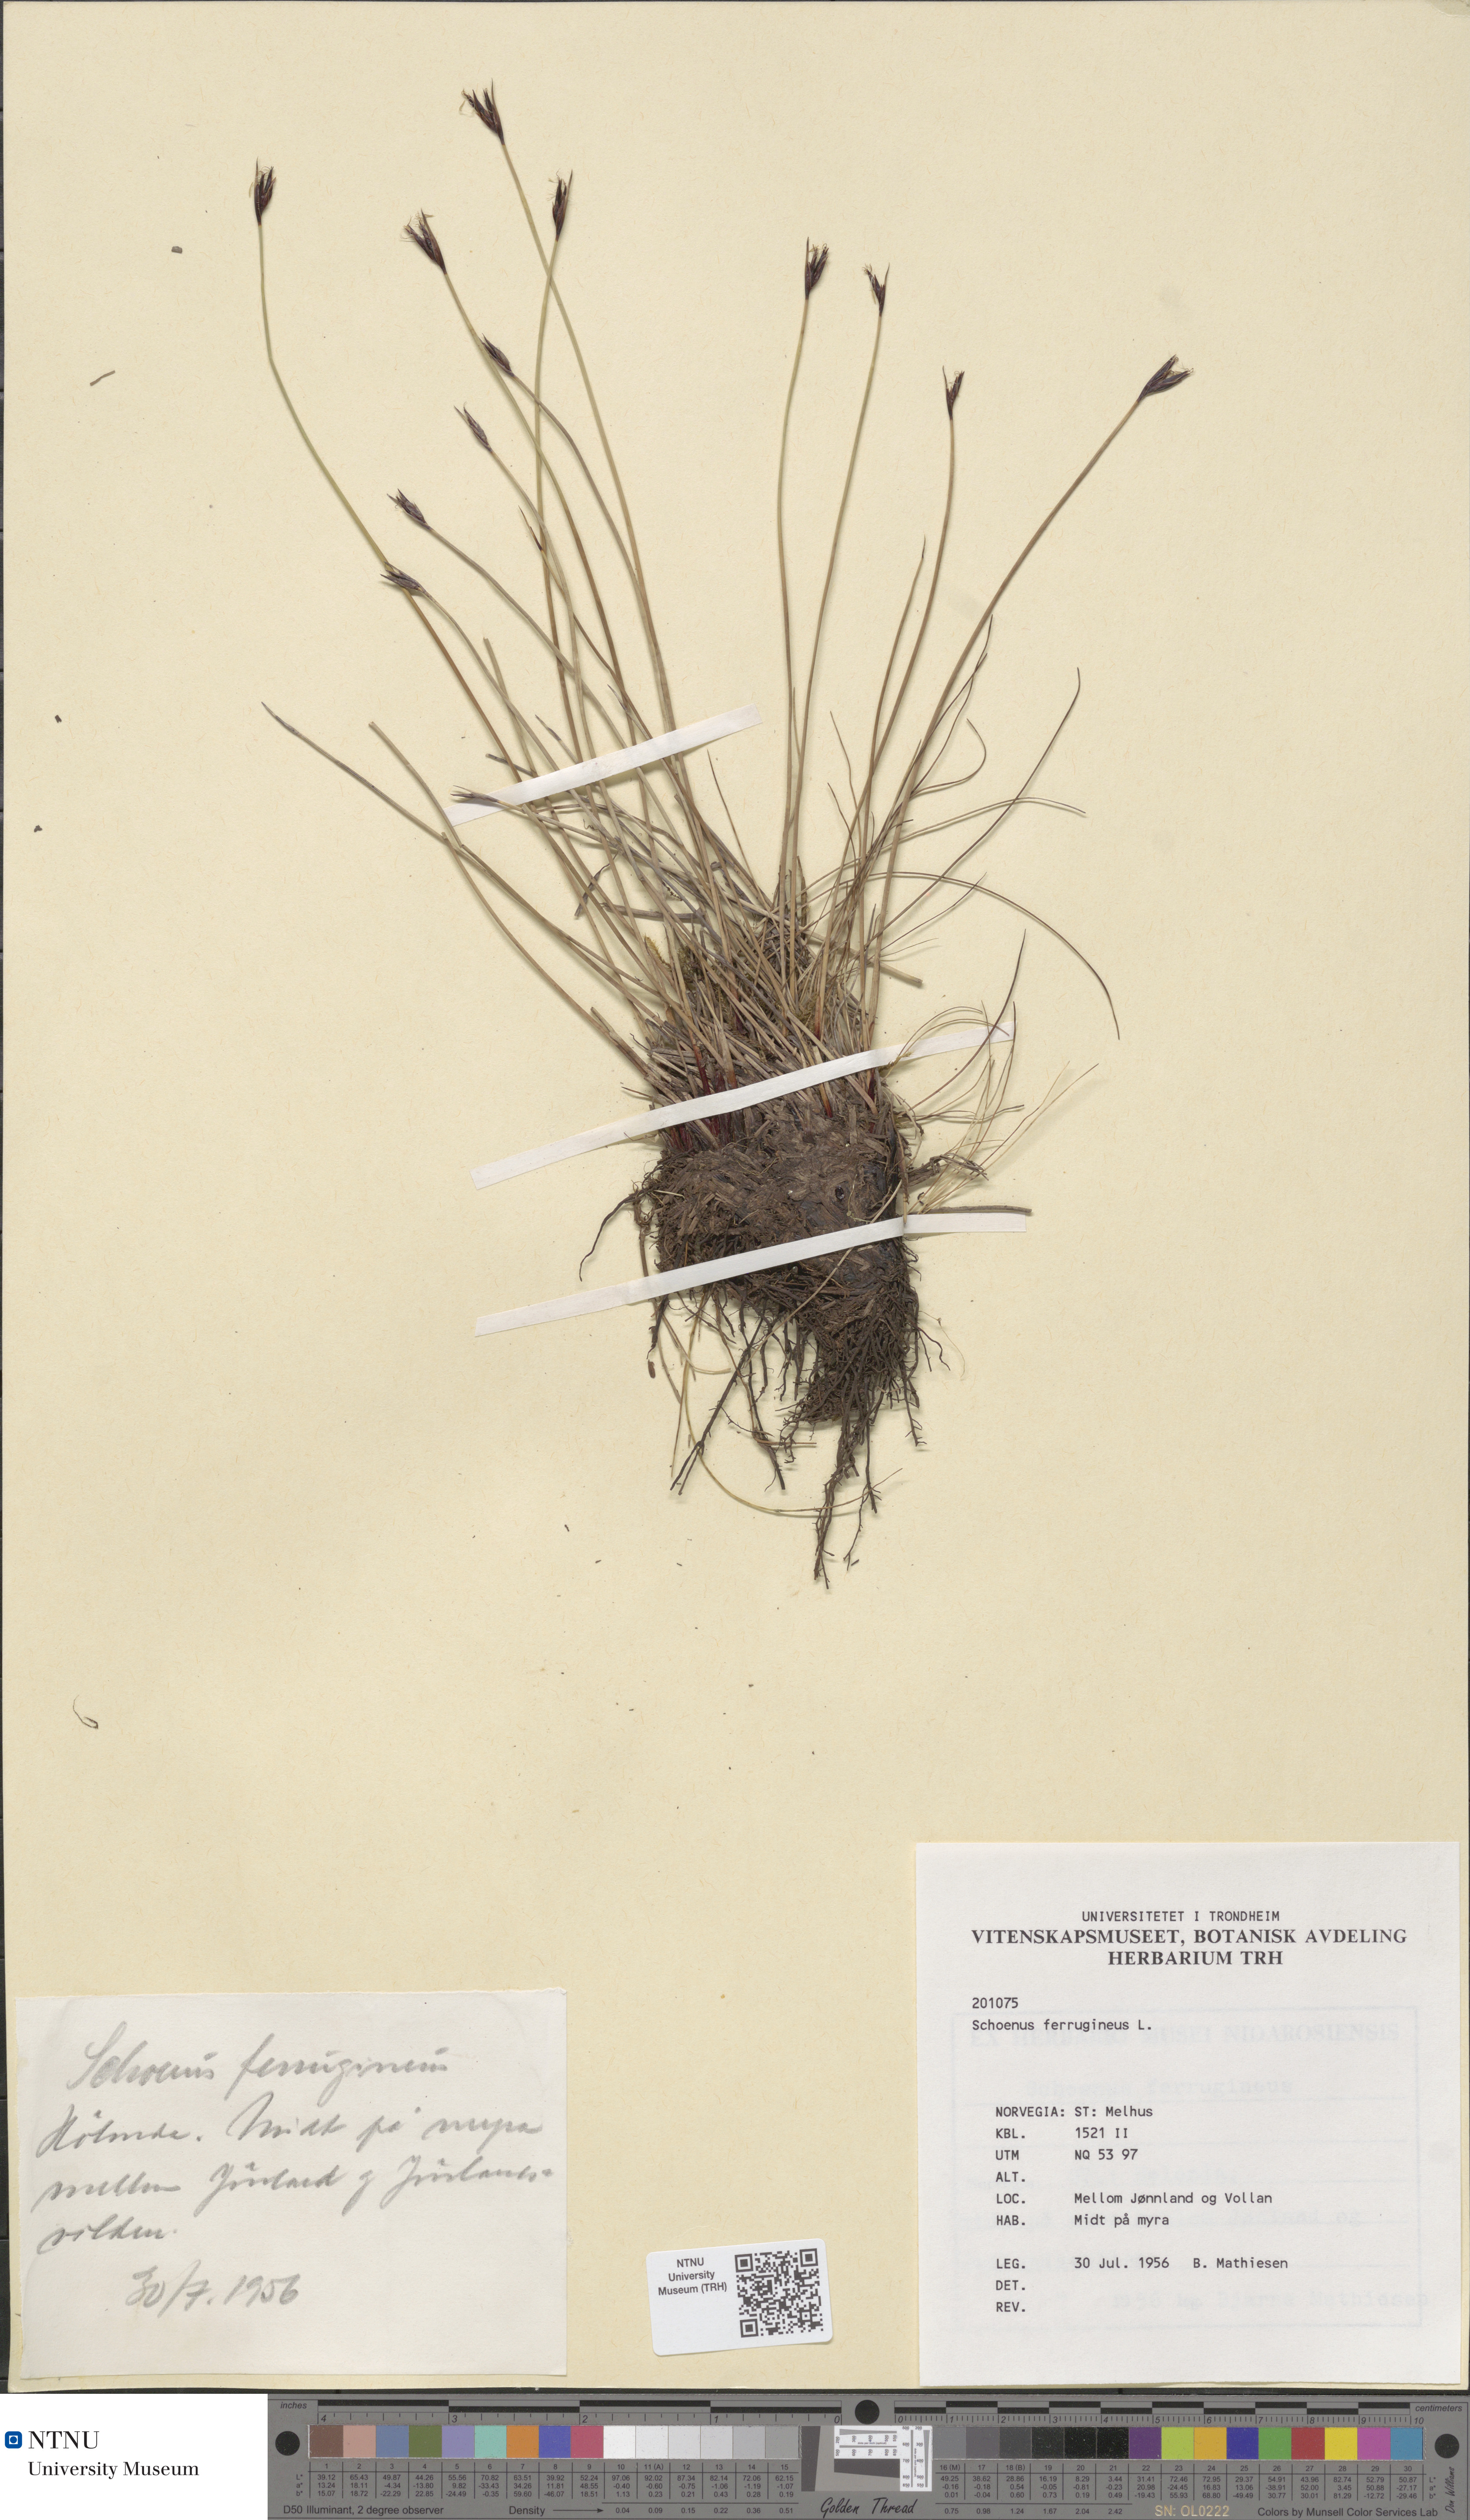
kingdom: Plantae
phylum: Tracheophyta
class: Liliopsida
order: Poales
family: Cyperaceae
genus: Schoenus
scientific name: Schoenus ferrugineus
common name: Brown bog-rush
